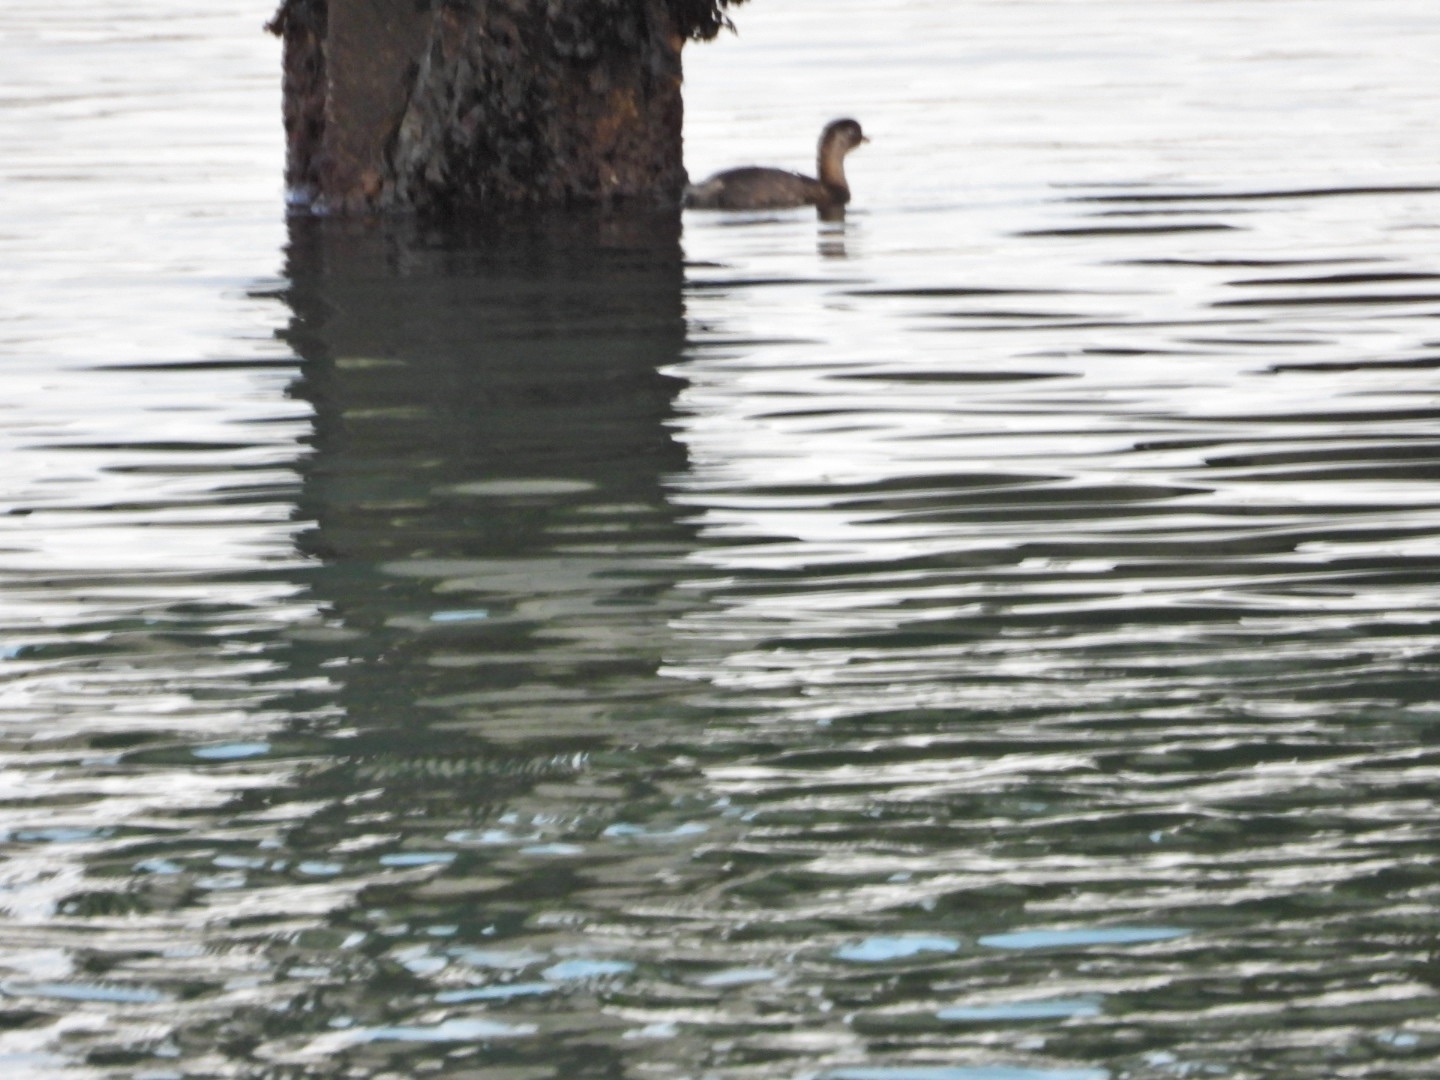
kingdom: Animalia
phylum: Chordata
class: Aves
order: Podicipediformes
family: Podicipedidae
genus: Tachybaptus
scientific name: Tachybaptus ruficollis
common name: Lille lappedykker
